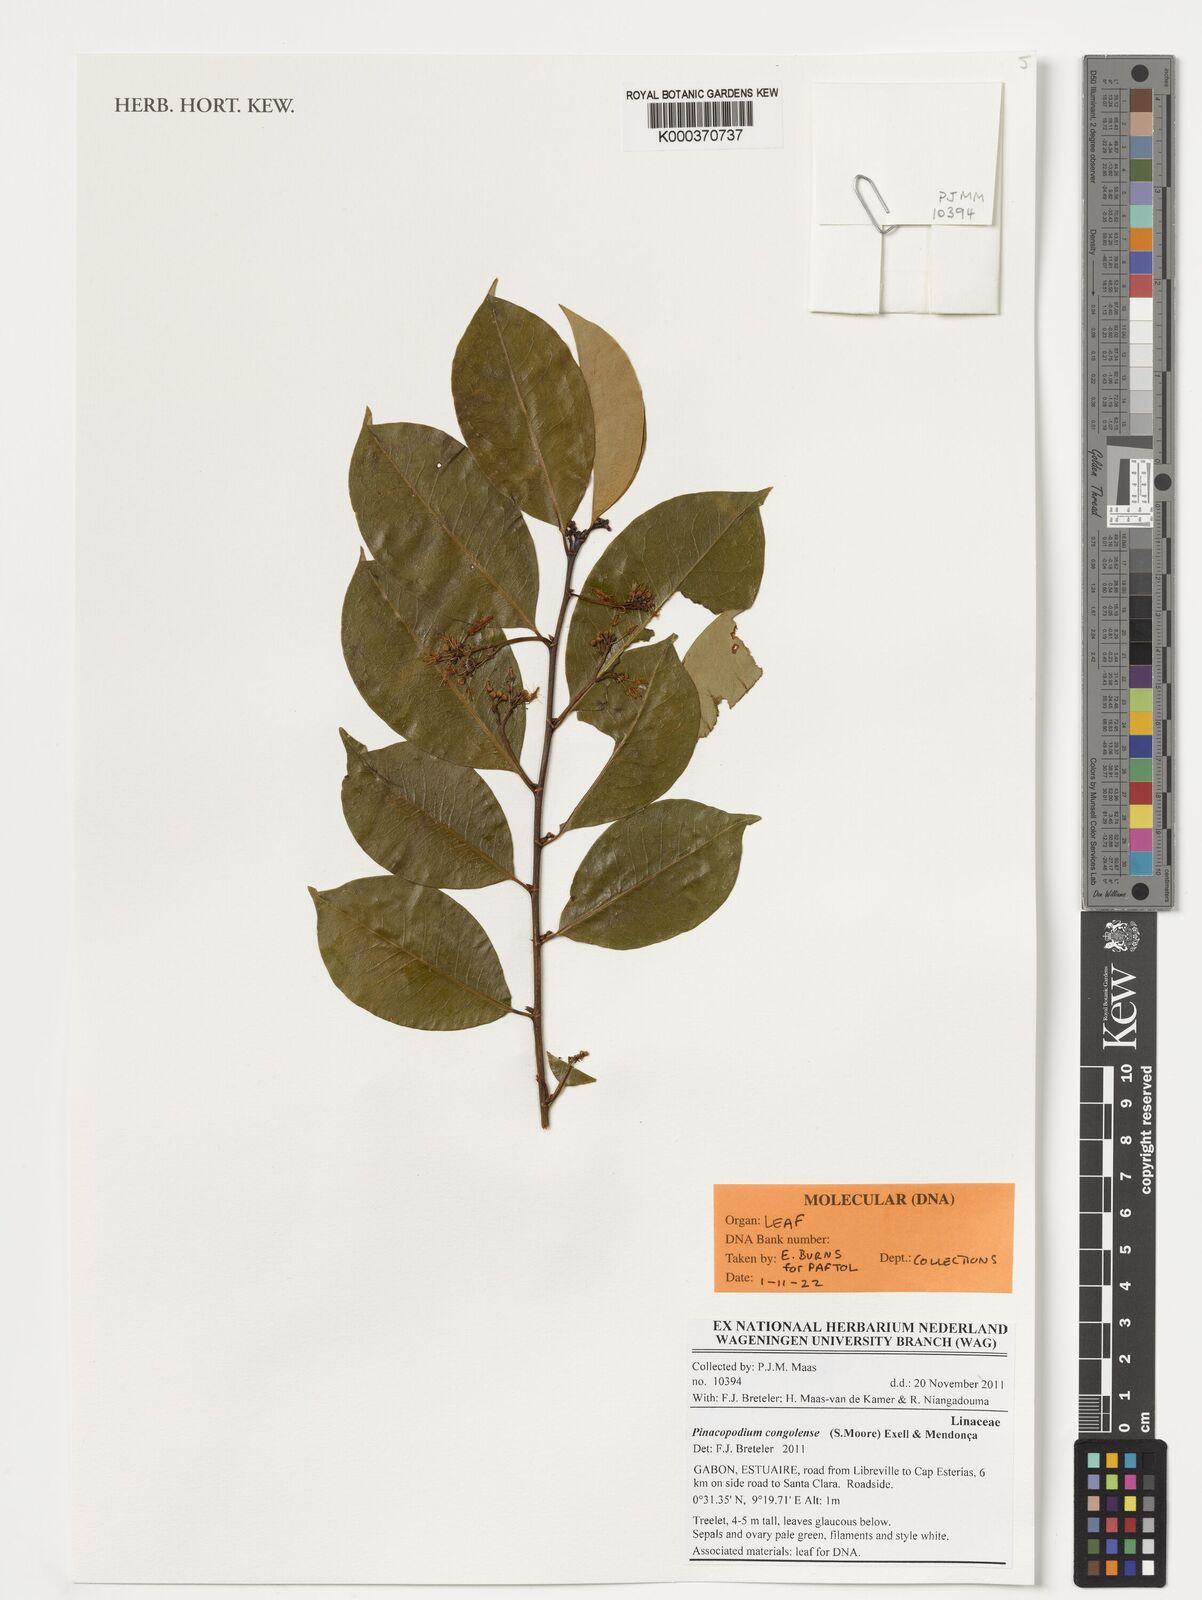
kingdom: Plantae
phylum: Tracheophyta
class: Magnoliopsida
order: Malpighiales
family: Erythroxylaceae
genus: Pinacopodium
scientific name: Pinacopodium congolense
